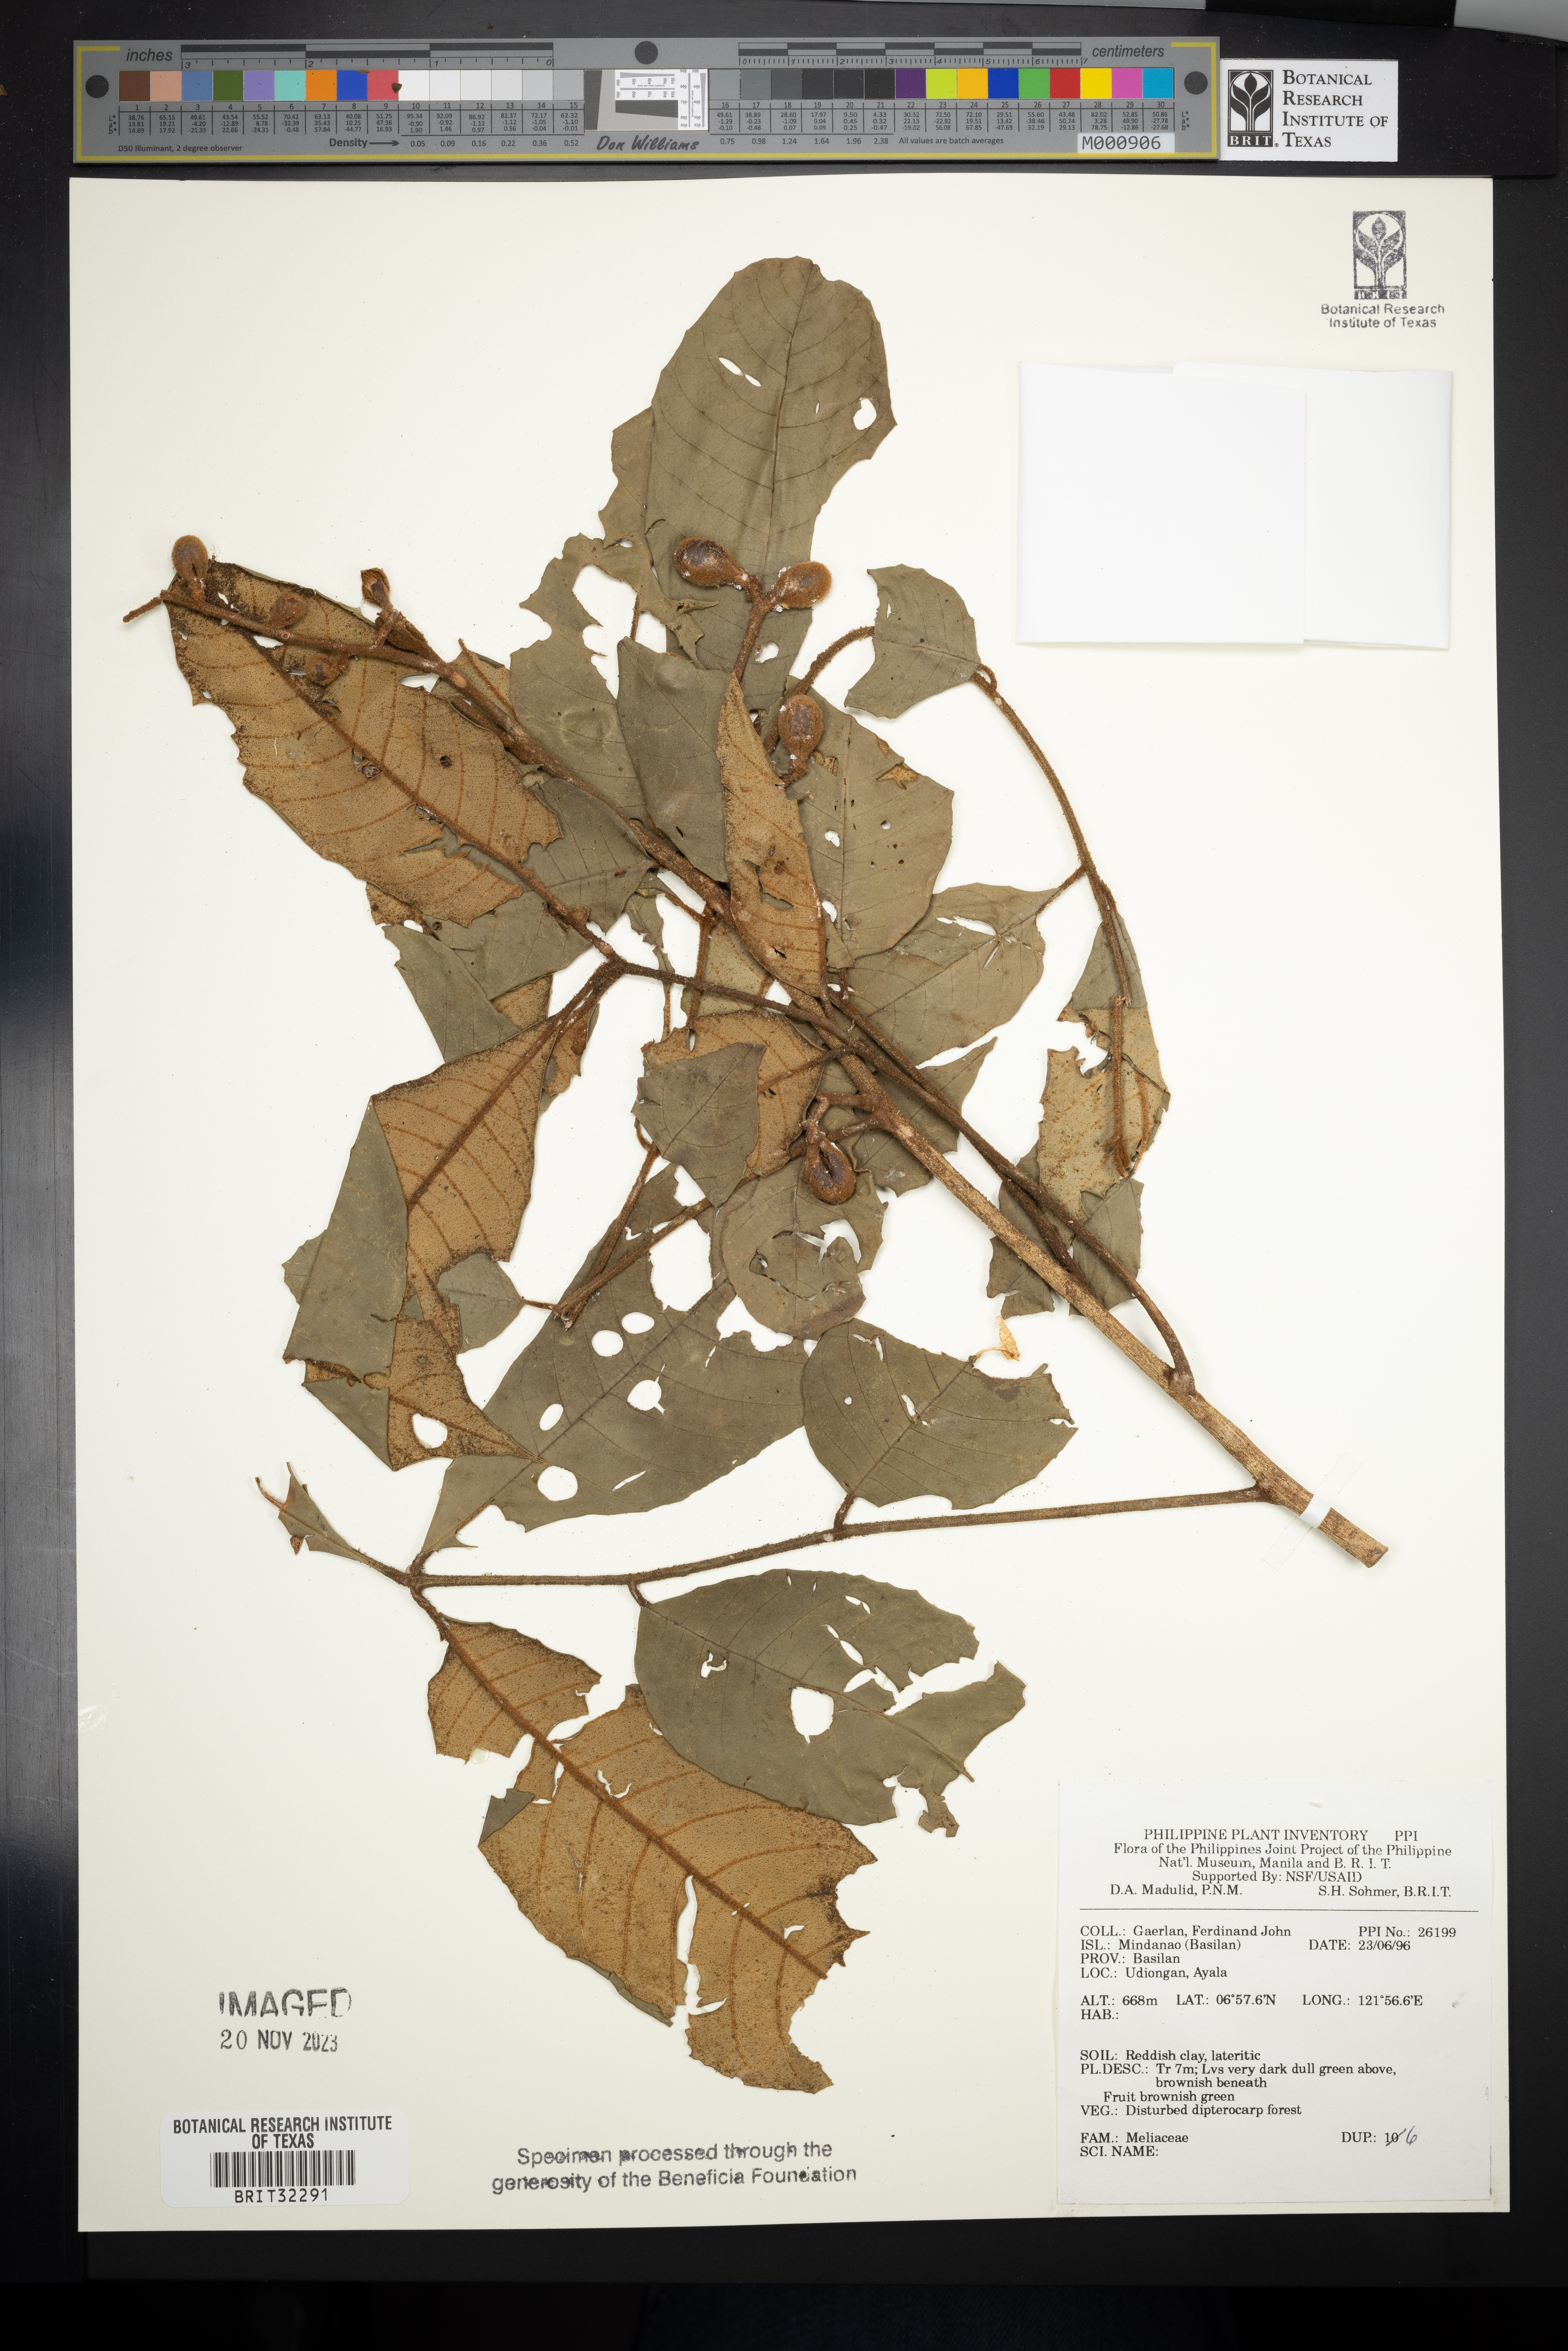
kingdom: Plantae
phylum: Tracheophyta
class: Magnoliopsida
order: Sapindales
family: Meliaceae
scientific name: Meliaceae
